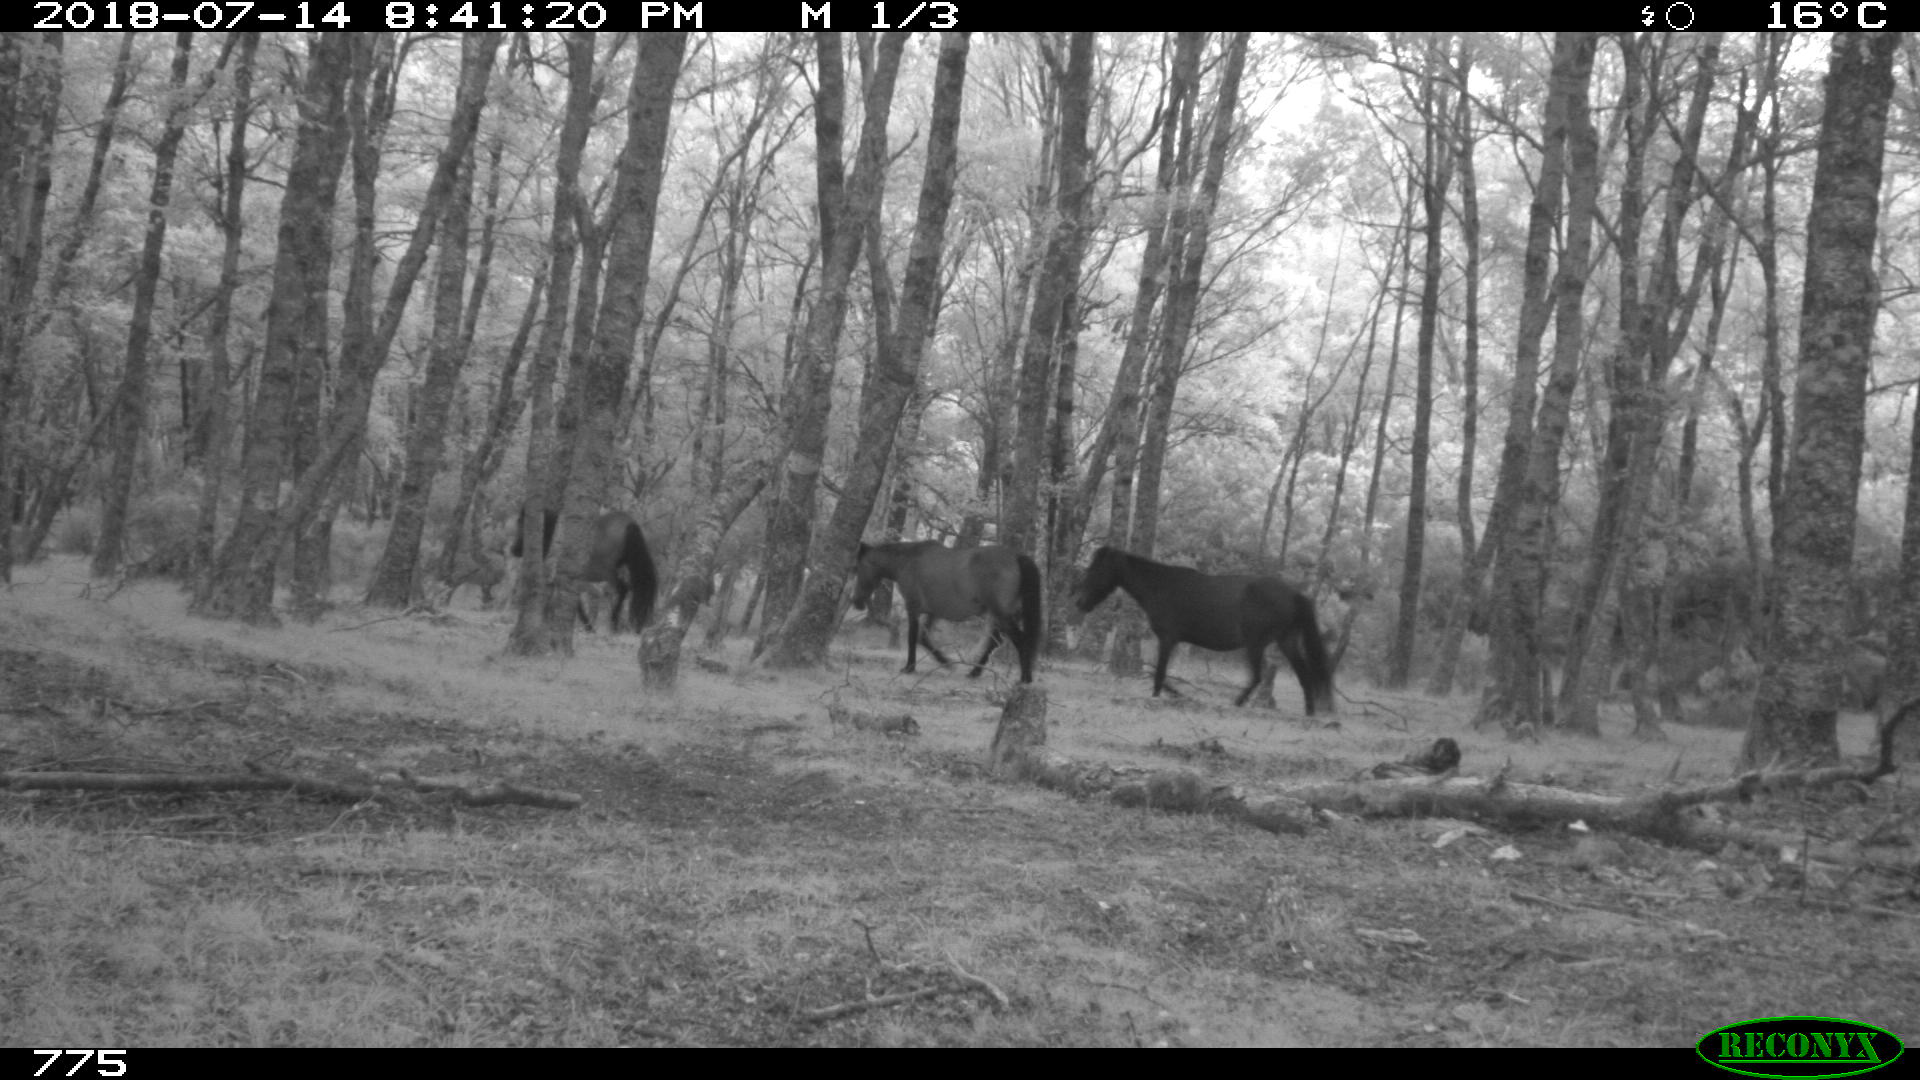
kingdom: Animalia
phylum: Chordata
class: Mammalia
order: Perissodactyla
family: Equidae
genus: Equus
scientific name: Equus caballus
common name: Horse
